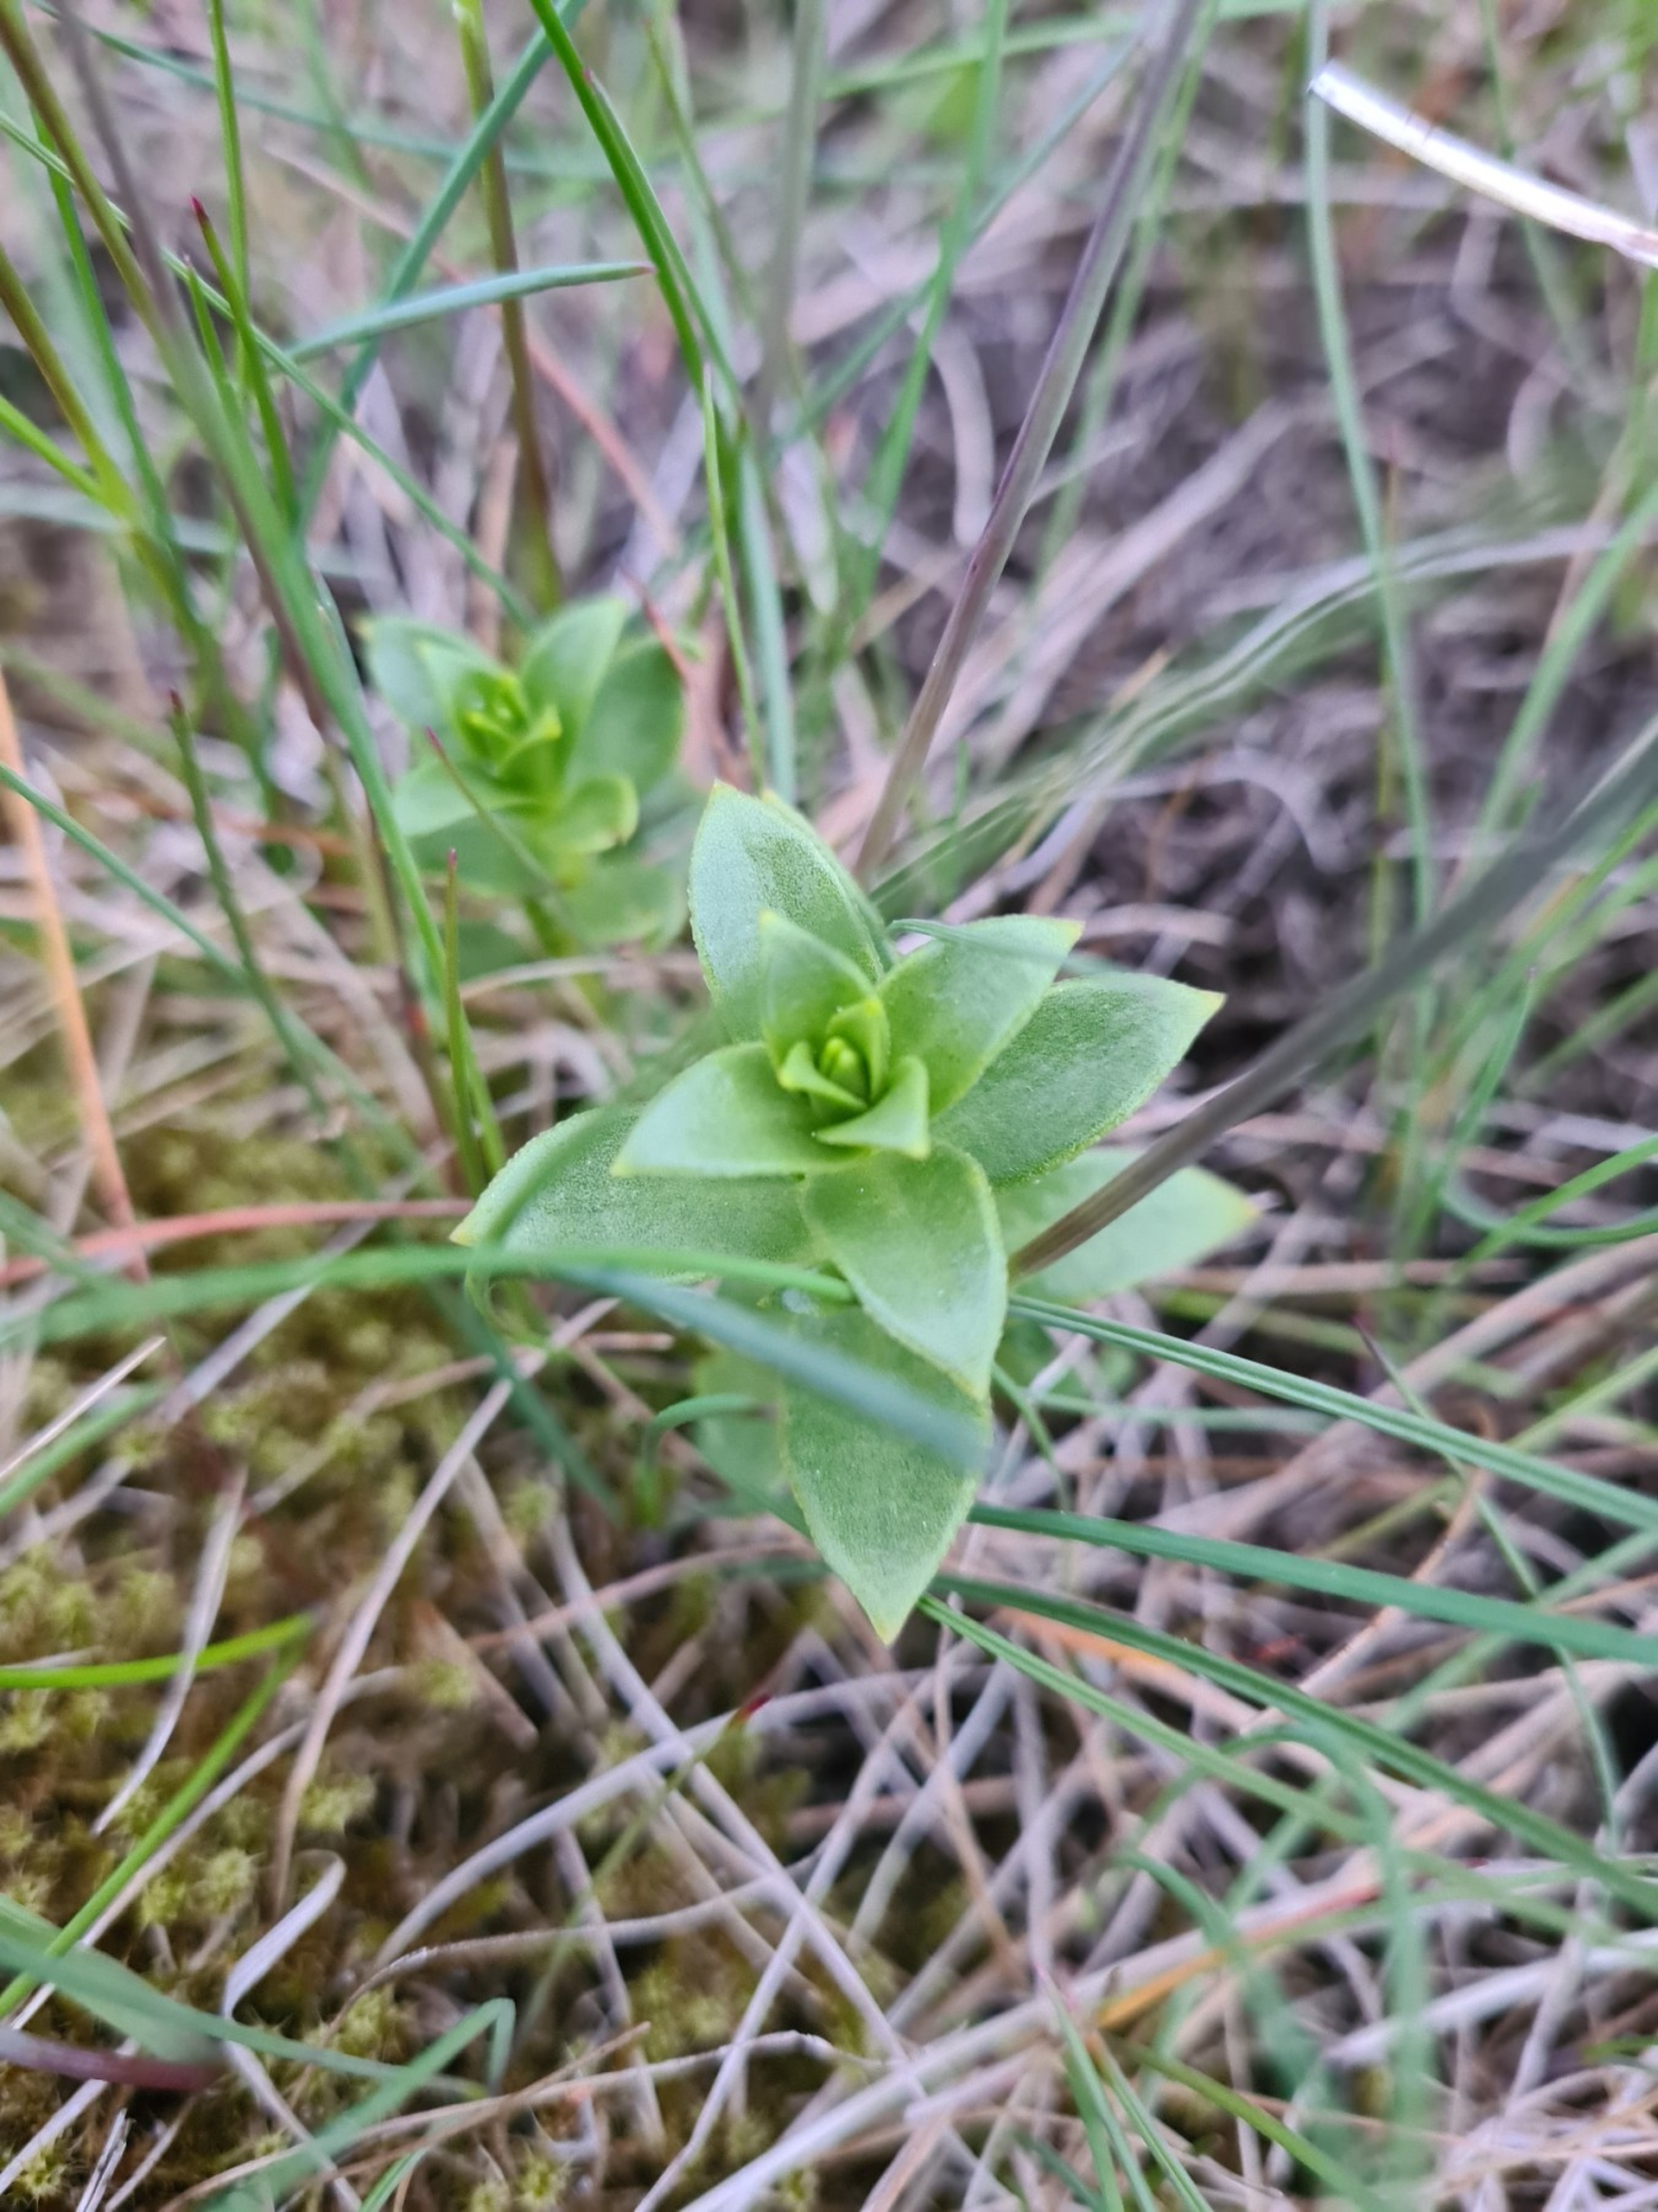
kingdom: Plantae
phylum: Tracheophyta
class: Magnoliopsida
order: Caryophyllales
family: Caryophyllaceae
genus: Honckenya
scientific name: Honckenya peploides
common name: Strandarve
